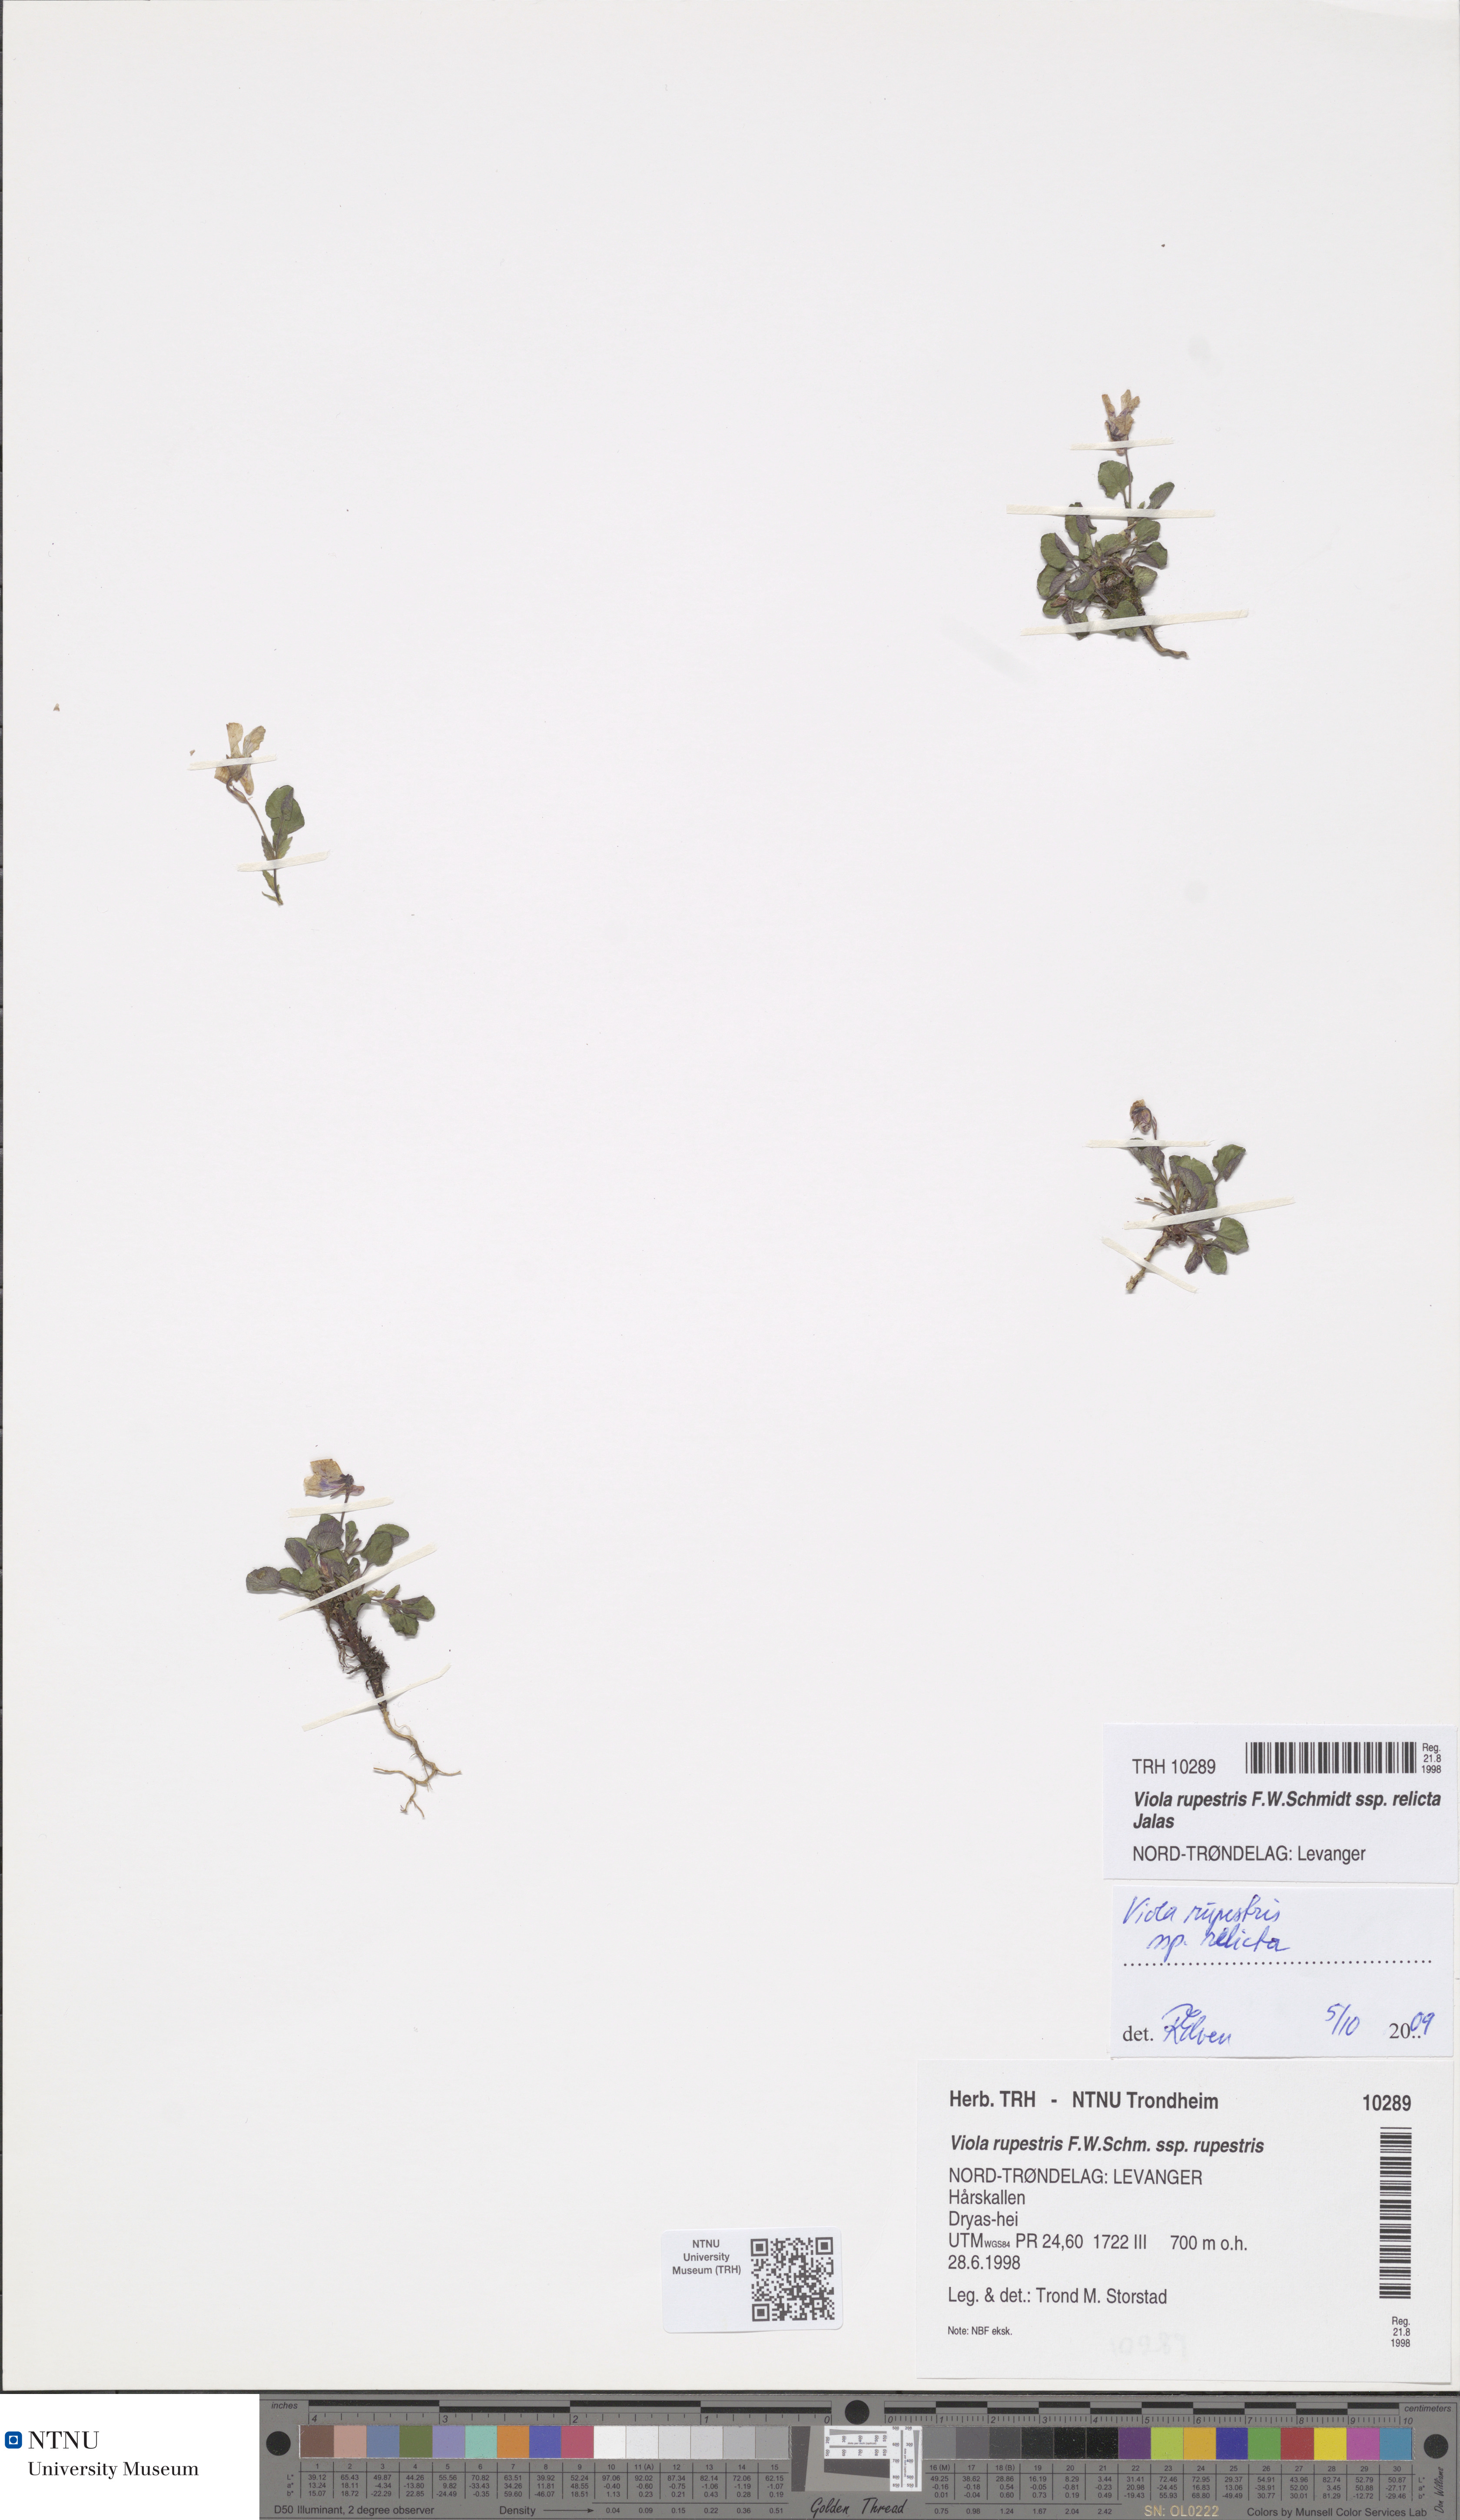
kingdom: Plantae
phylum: Tracheophyta
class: Magnoliopsida
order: Malpighiales
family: Violaceae
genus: Viola
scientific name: Viola rupestris
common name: Teesdale violet
